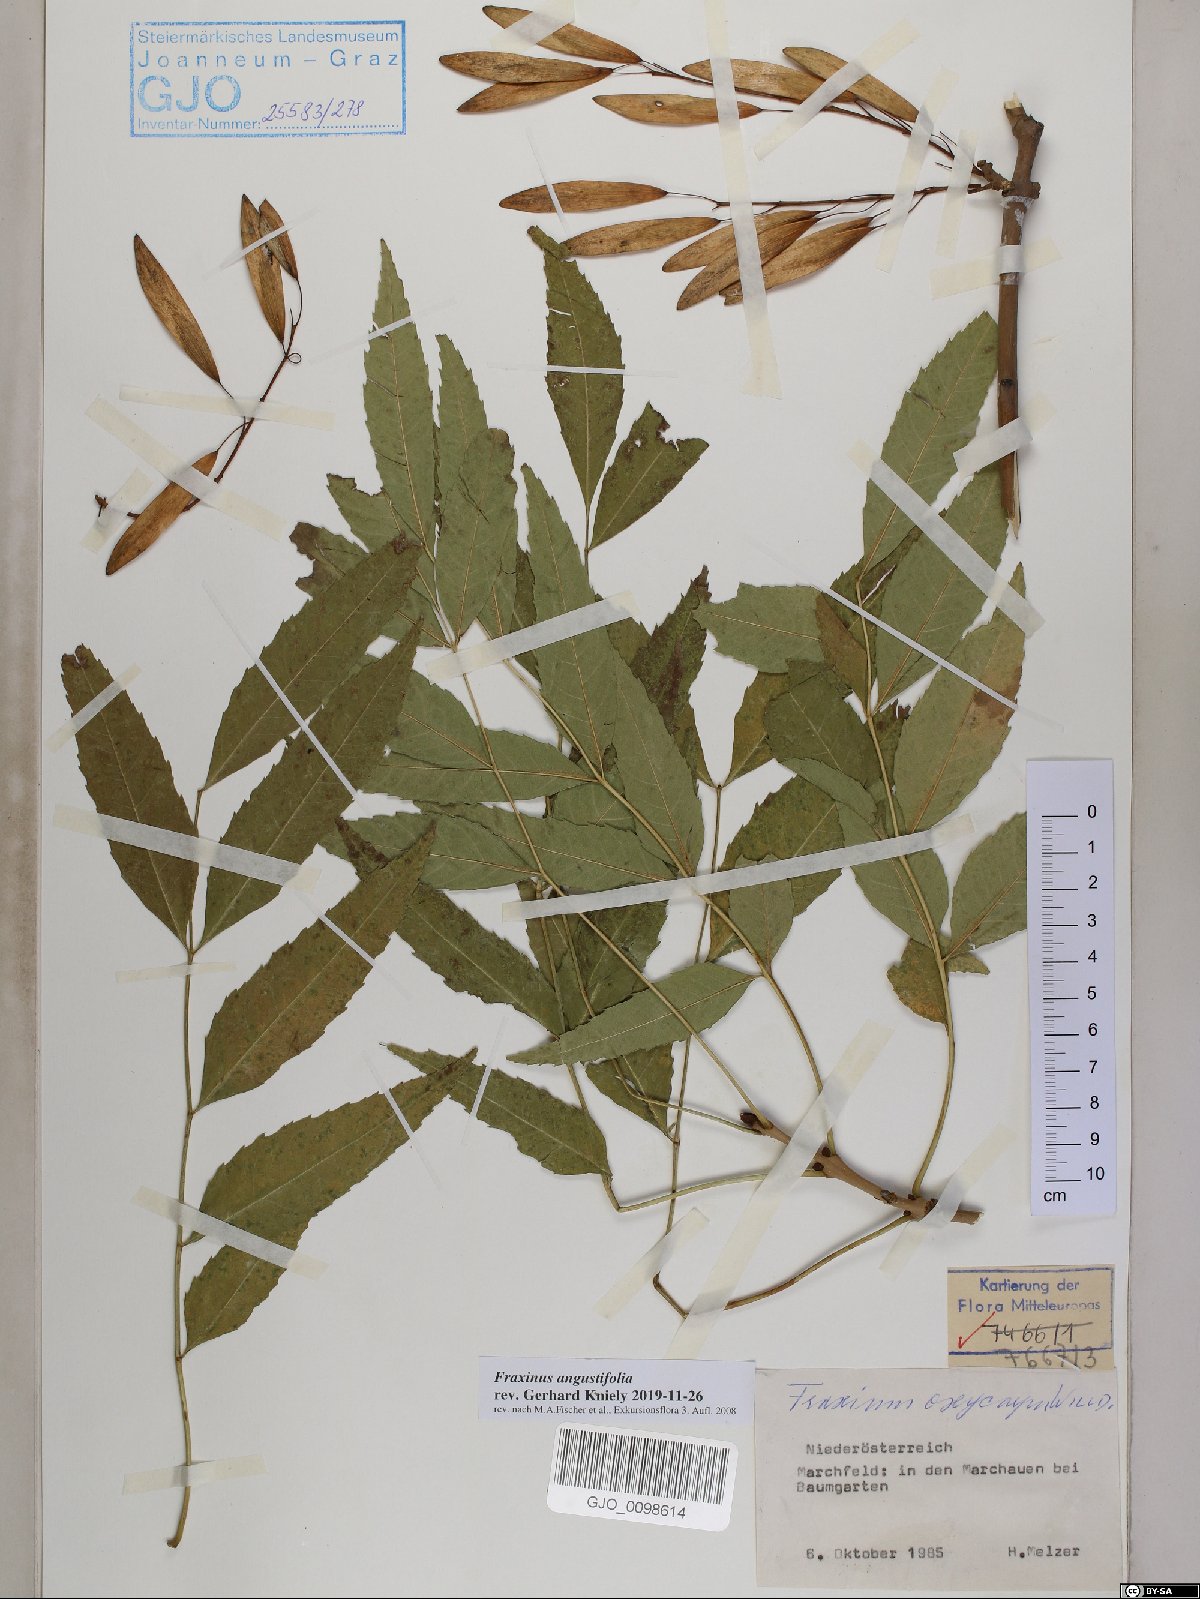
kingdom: Plantae
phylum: Tracheophyta
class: Magnoliopsida
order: Lamiales
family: Oleaceae
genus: Fraxinus
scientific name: Fraxinus angustifolia
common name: Narrow-leafed ash
